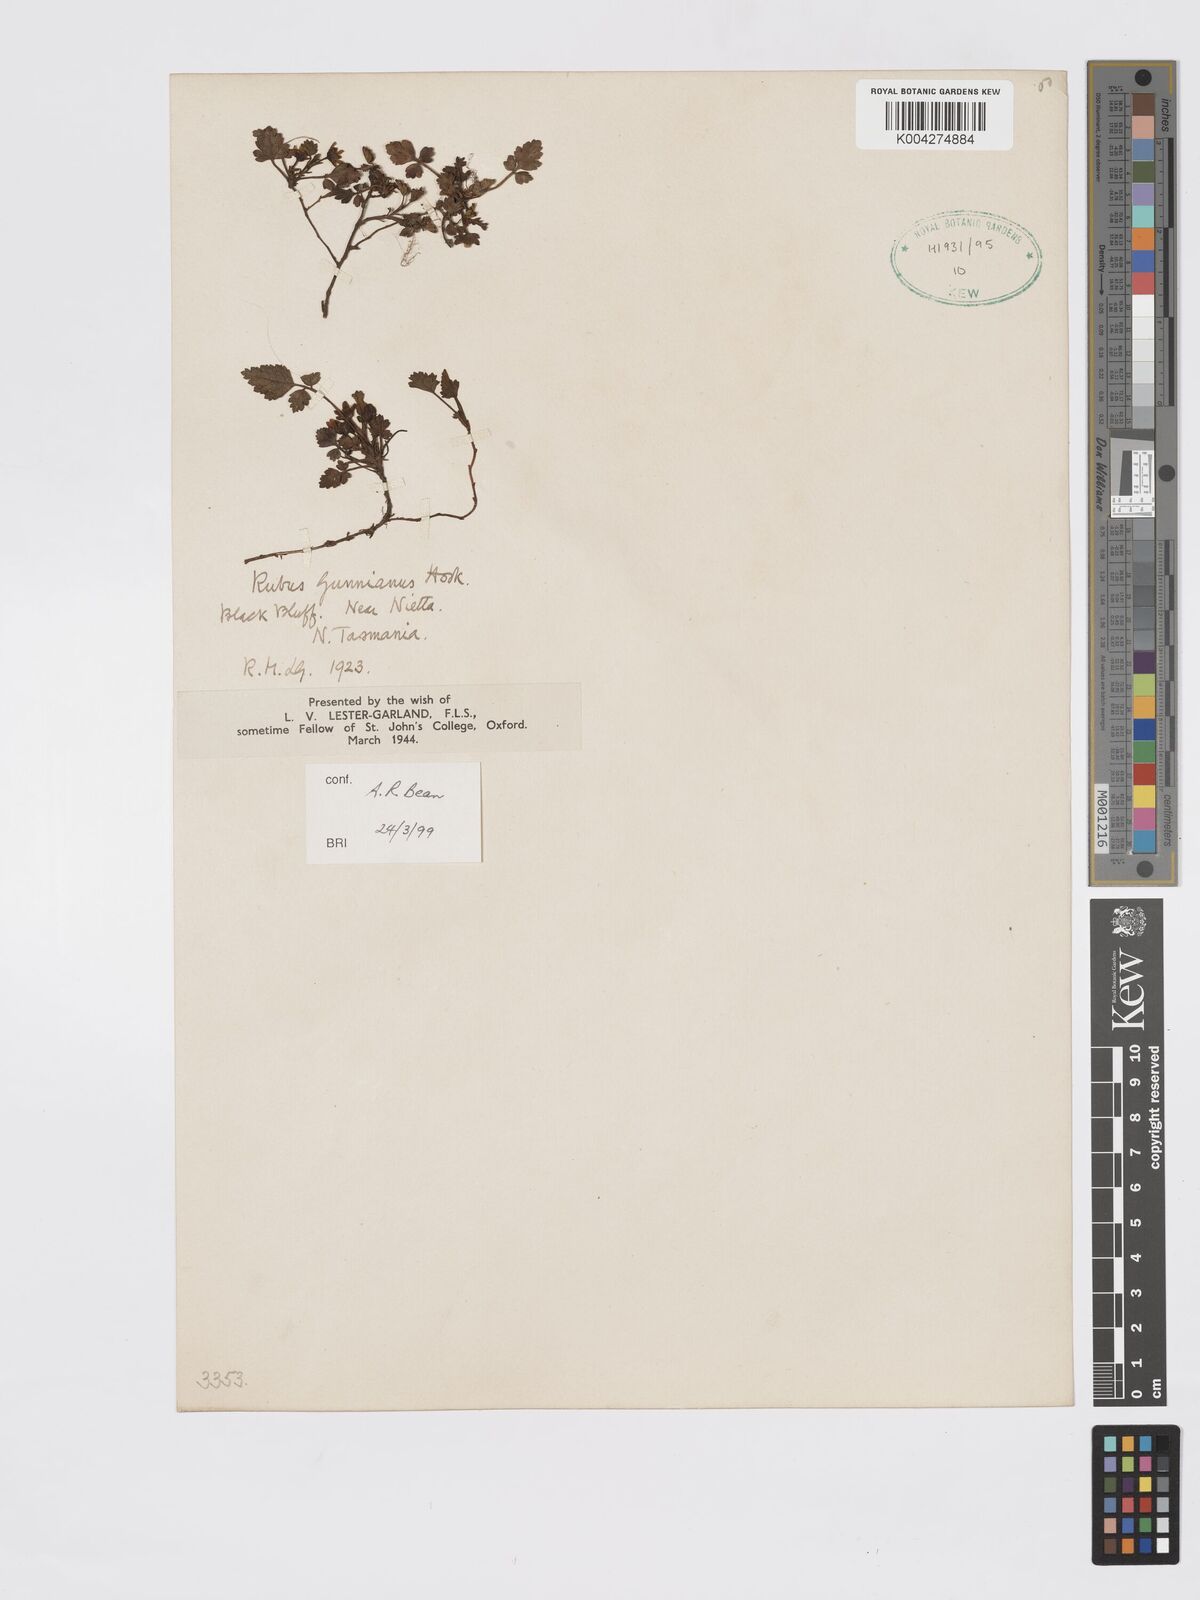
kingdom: Plantae
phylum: Tracheophyta
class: Magnoliopsida
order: Rosales
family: Rosaceae
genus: Rubus
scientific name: Rubus gunnianus
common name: Mountain raspberry
